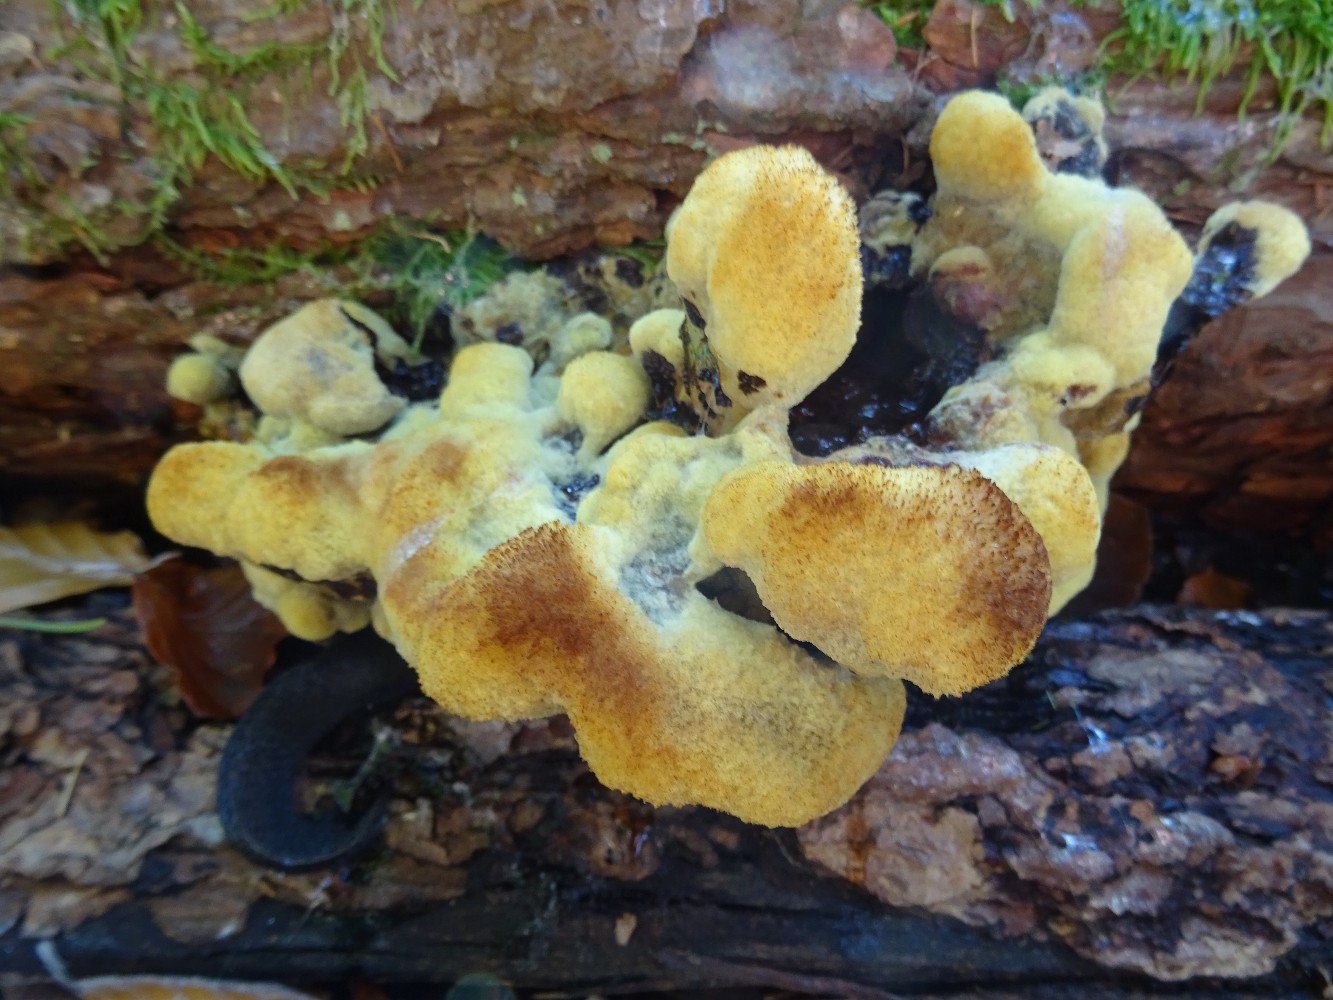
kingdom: Fungi
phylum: Basidiomycota
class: Agaricomycetes
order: Polyporales
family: Laetiporaceae
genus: Phaeolus
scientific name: Phaeolus schweinitzii
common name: brunporesvamp
